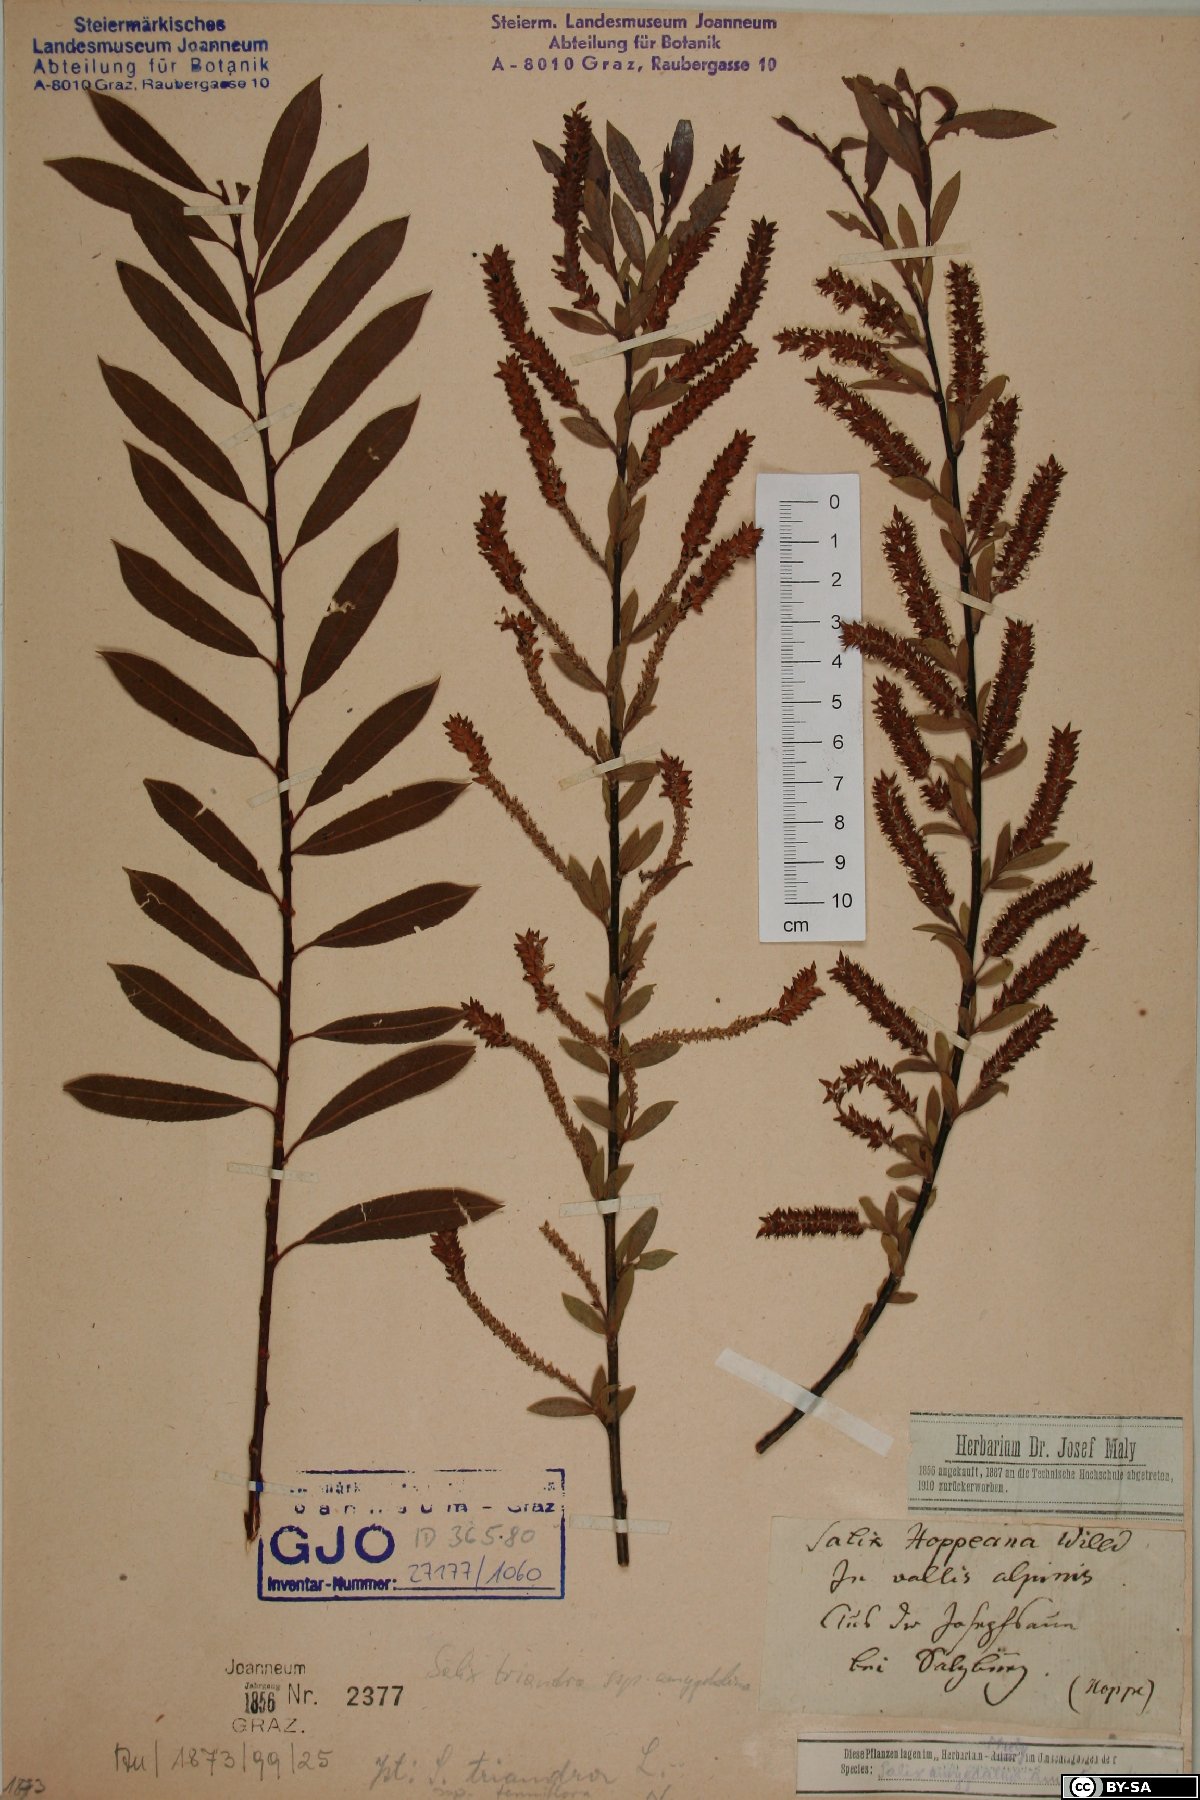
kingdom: Plantae
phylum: Tracheophyta
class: Magnoliopsida
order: Malpighiales
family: Salicaceae
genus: Salix
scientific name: Salix triandra
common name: Almond willow
